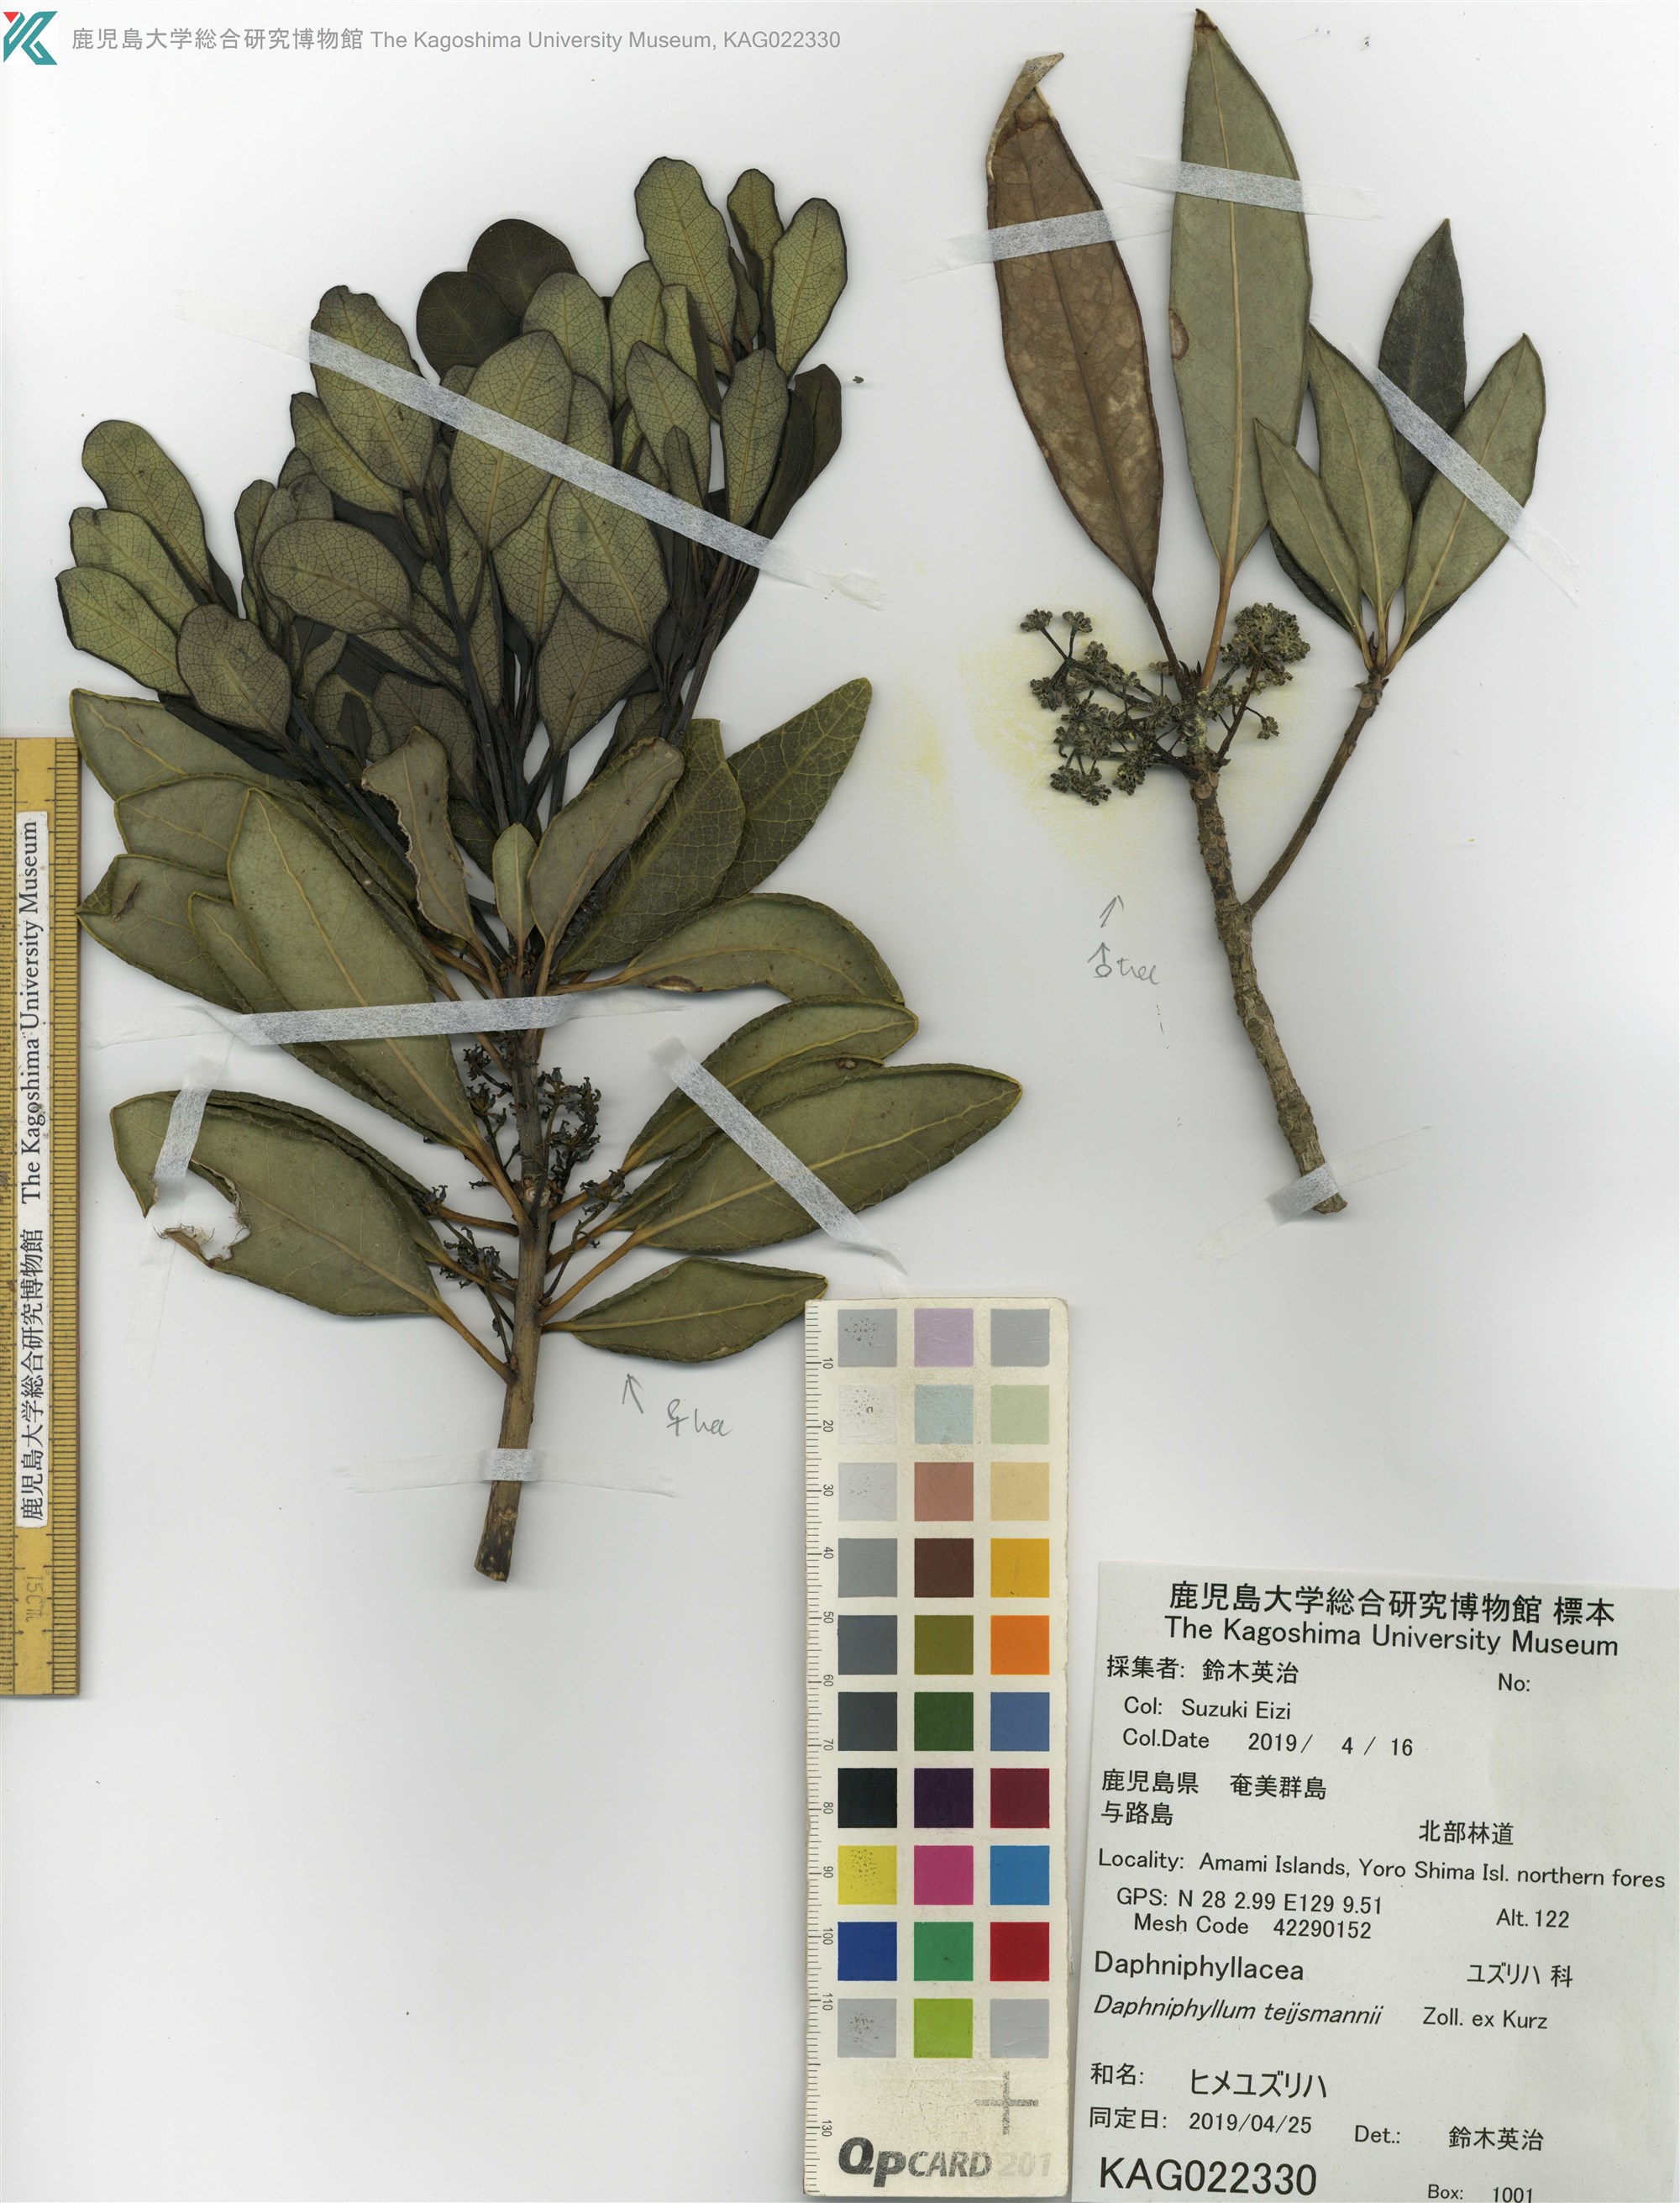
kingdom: Plantae
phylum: Tracheophyta
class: Magnoliopsida
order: Saxifragales
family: Daphniphyllaceae
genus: Daphniphyllum
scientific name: Daphniphyllum teijsmannii
